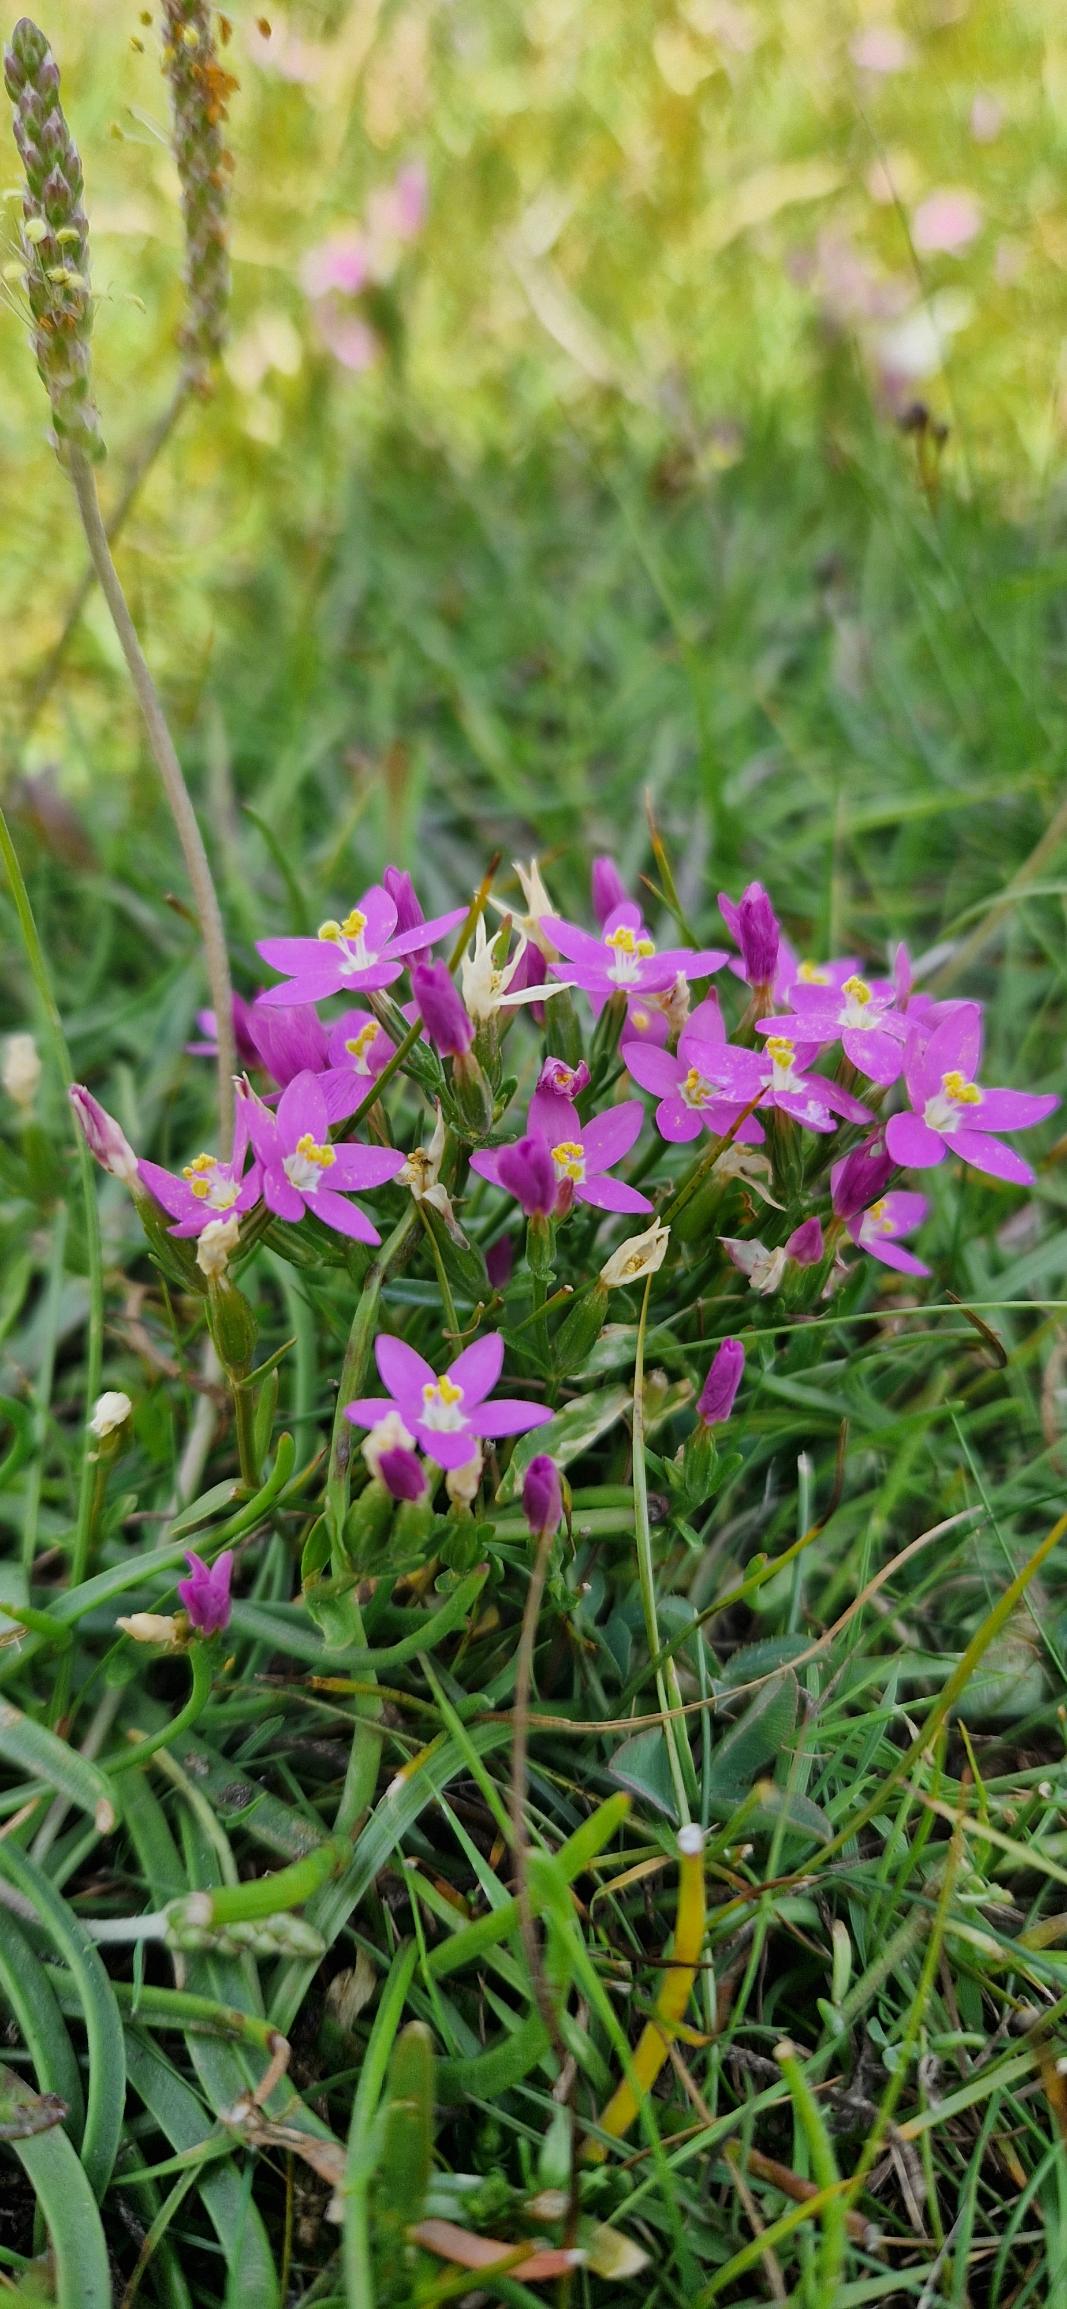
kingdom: Plantae
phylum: Tracheophyta
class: Magnoliopsida
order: Gentianales
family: Gentianaceae
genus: Centaurium
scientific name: Centaurium littorale
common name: Strand-tusindgylden
